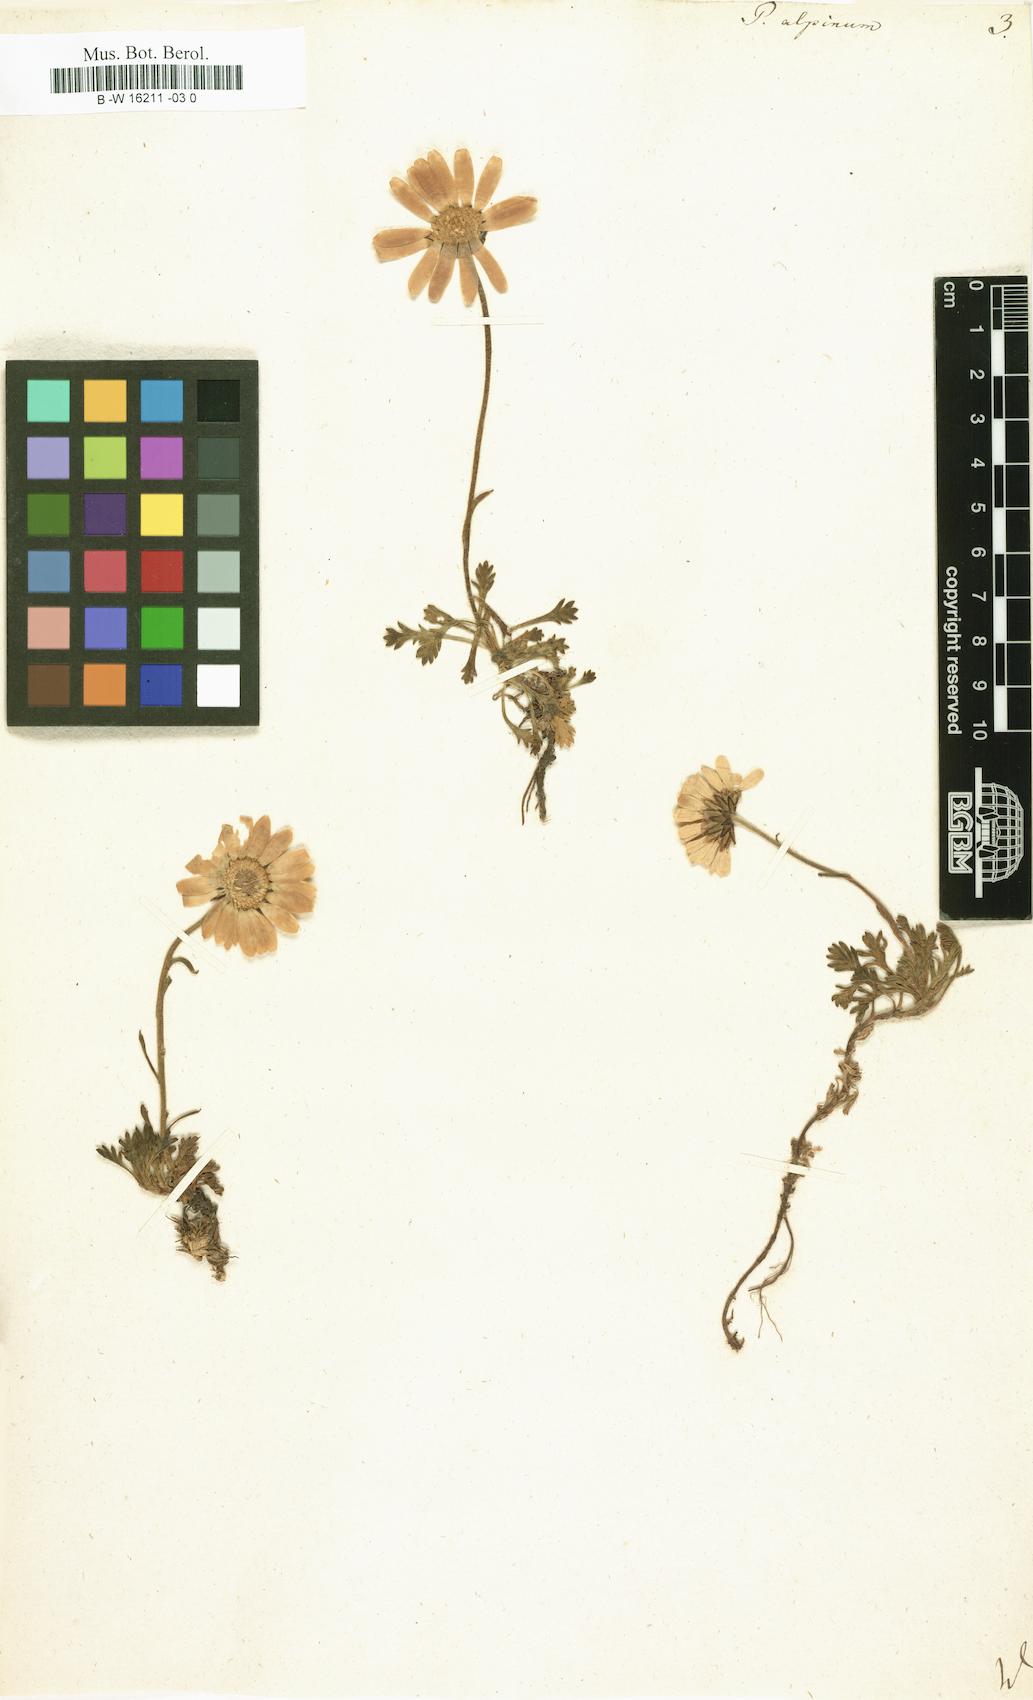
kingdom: Plantae
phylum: Tracheophyta
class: Magnoliopsida
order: Asterales
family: Asteraceae
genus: Tanacetum
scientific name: Tanacetum Pyrethrum alpinum
